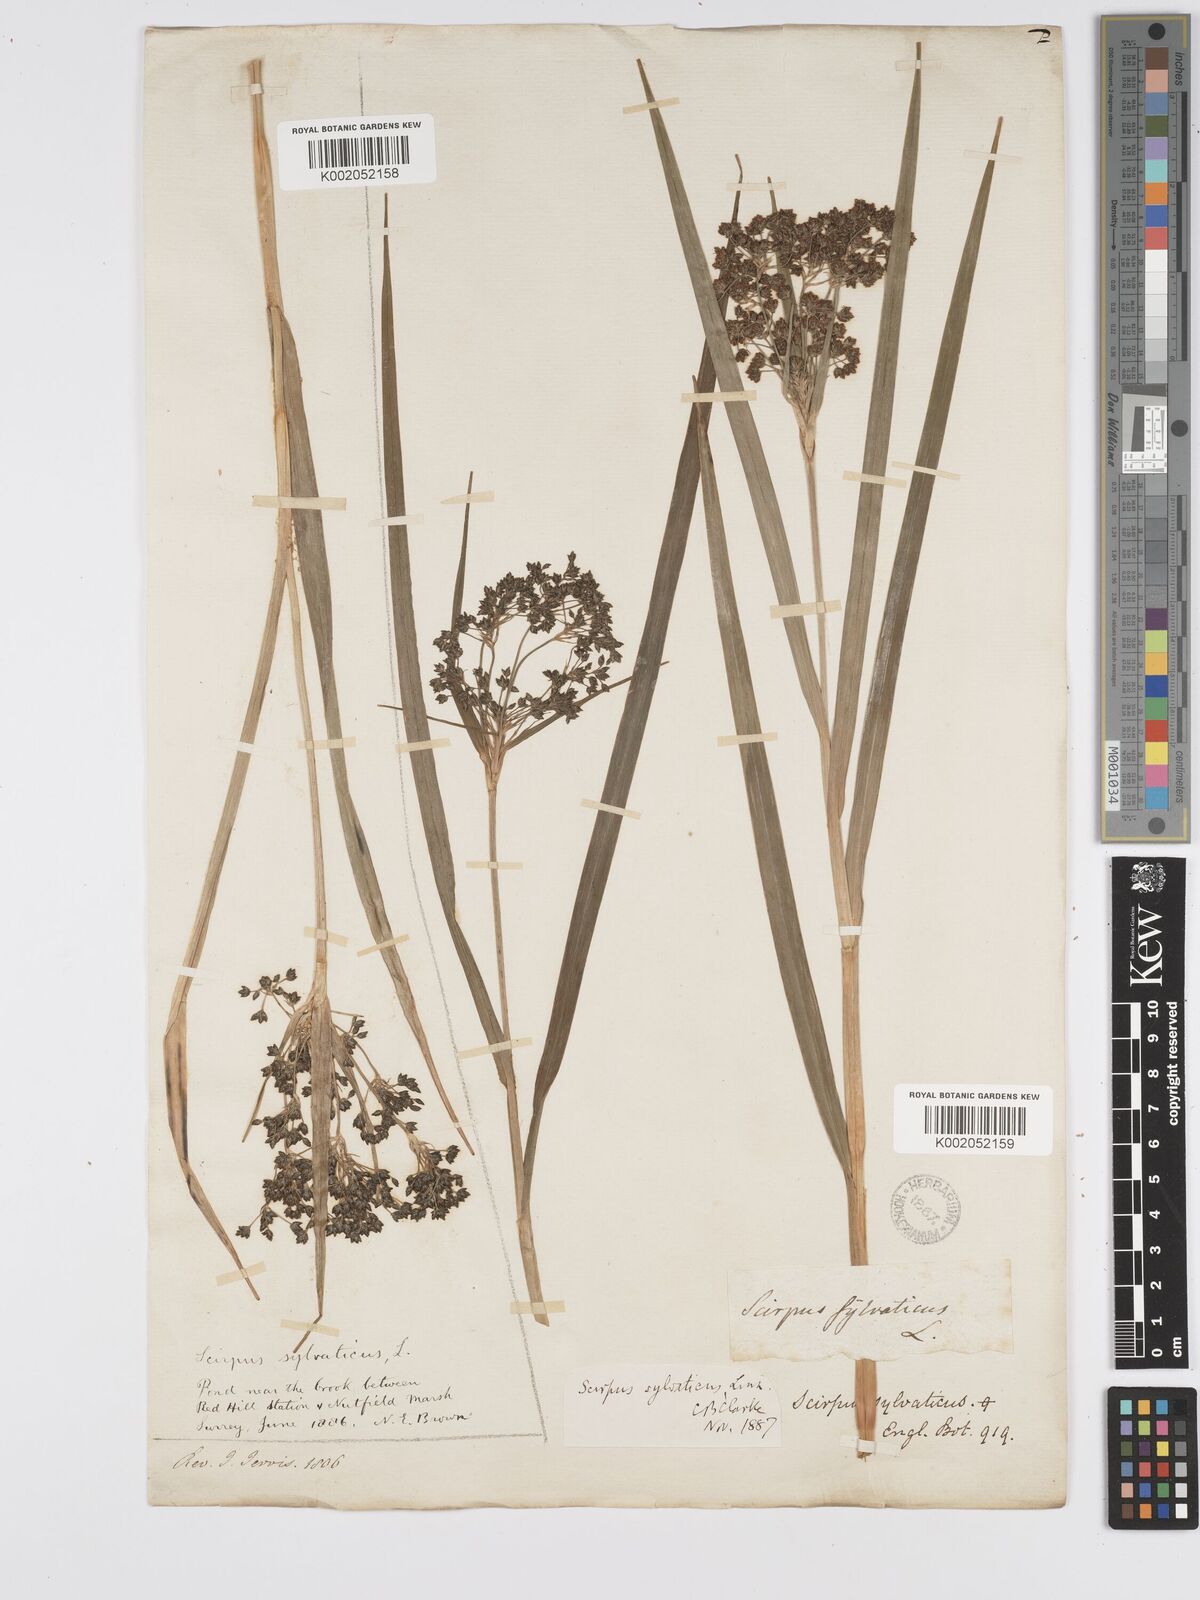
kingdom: Plantae
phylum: Tracheophyta
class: Liliopsida
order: Poales
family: Cyperaceae
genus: Scirpus
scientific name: Scirpus sylvaticus
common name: Wood club-rush
